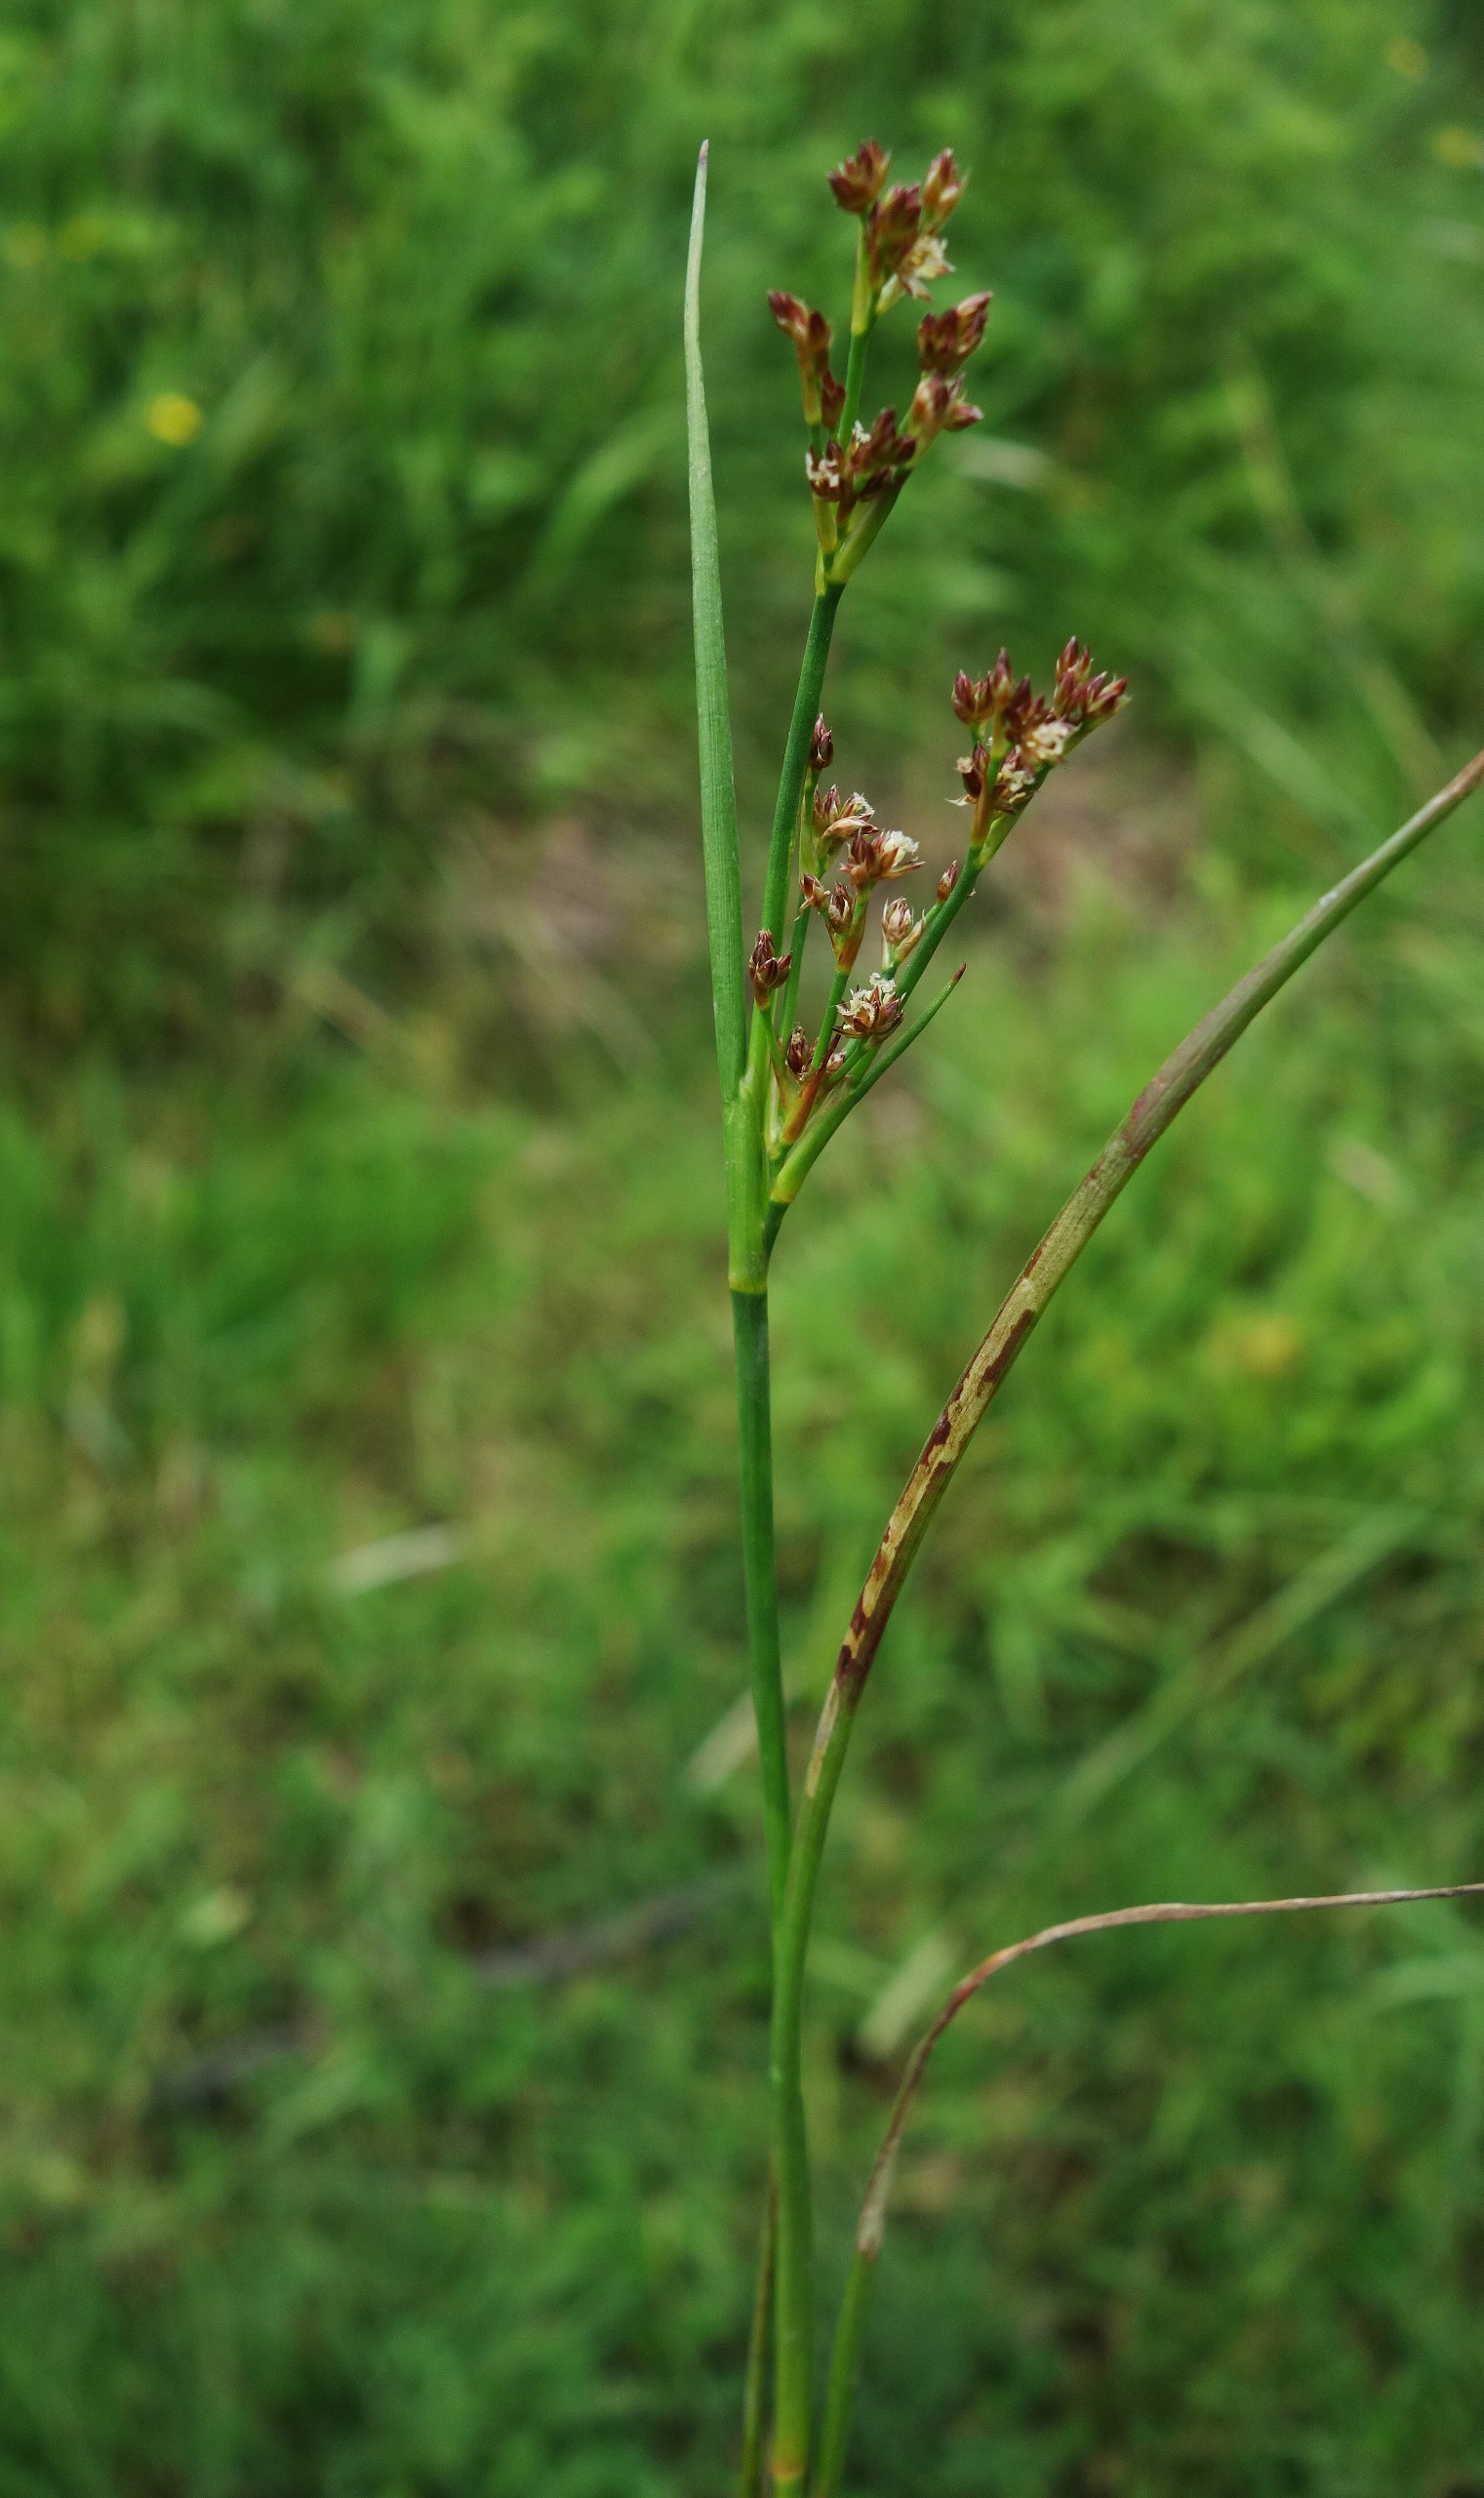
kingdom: Plantae
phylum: Tracheophyta
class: Liliopsida
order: Poales
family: Juncaceae
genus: Juncus
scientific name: Juncus articulatus
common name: Glanskapslet siv
